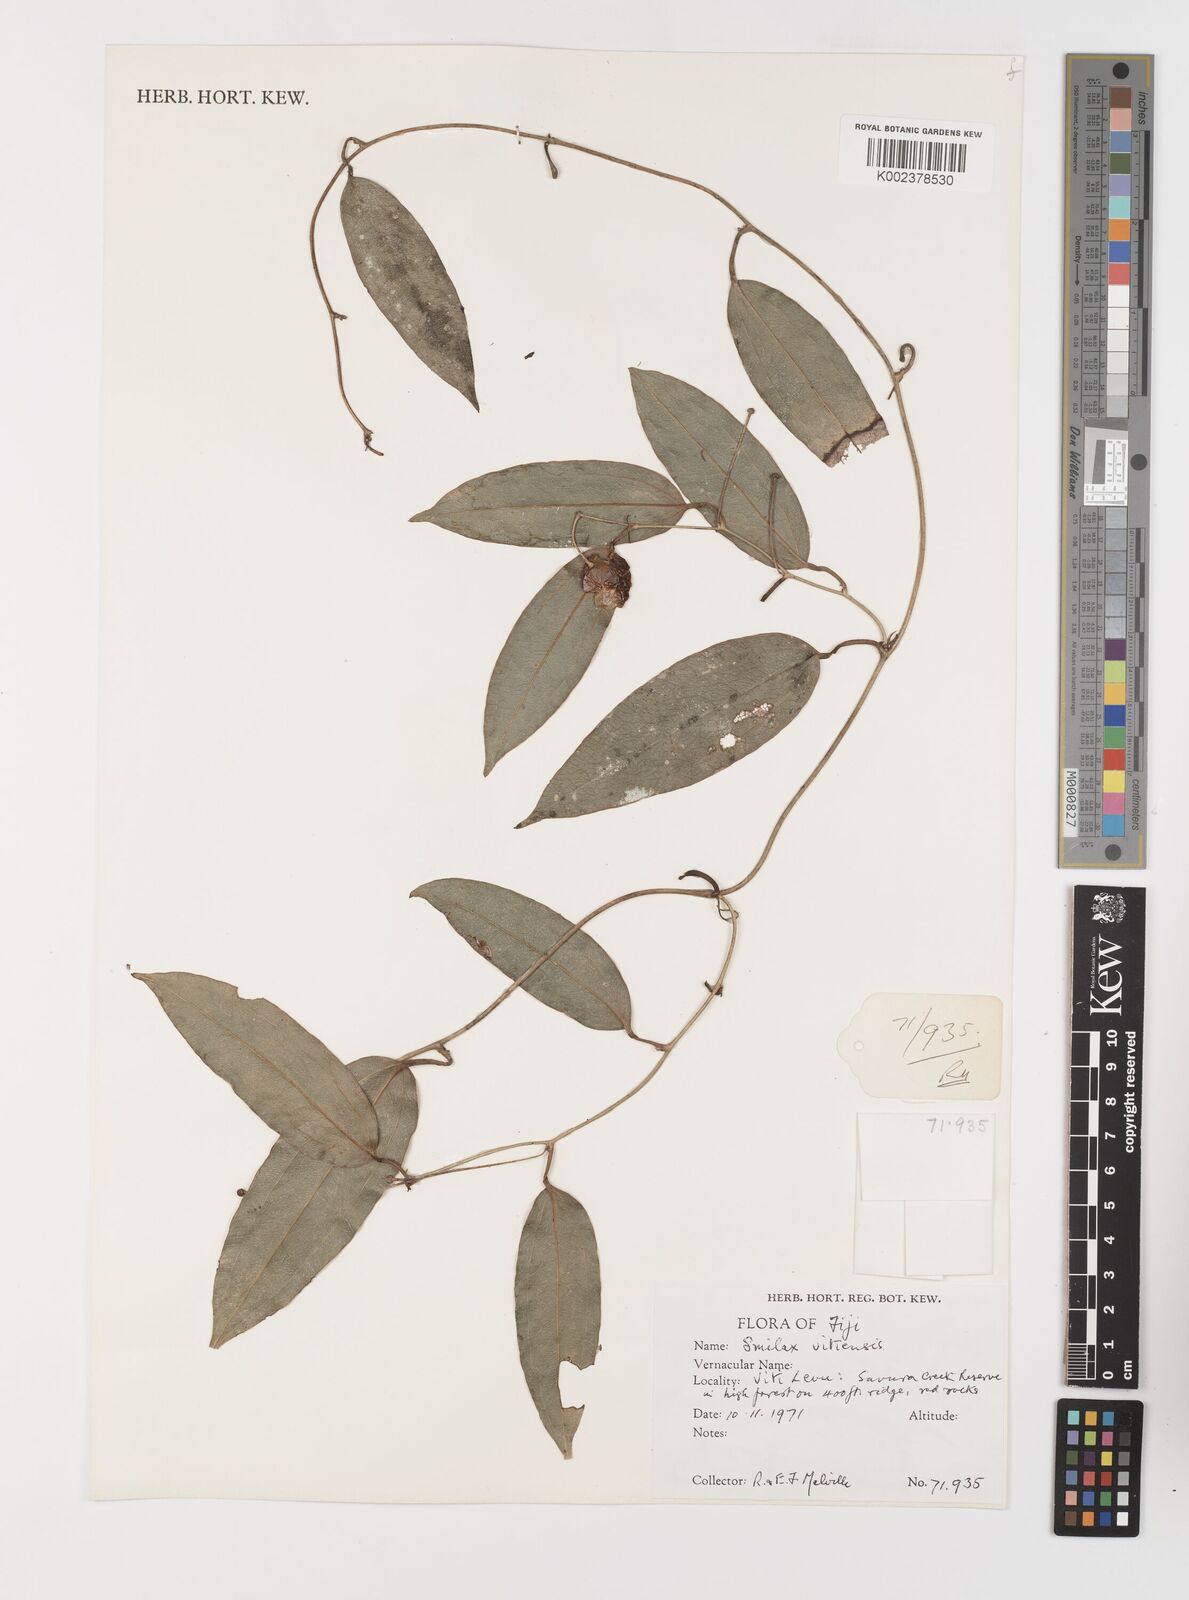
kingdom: Plantae
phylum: Tracheophyta
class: Liliopsida
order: Liliales
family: Smilacaceae
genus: Smilax
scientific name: Smilax vitiensis
